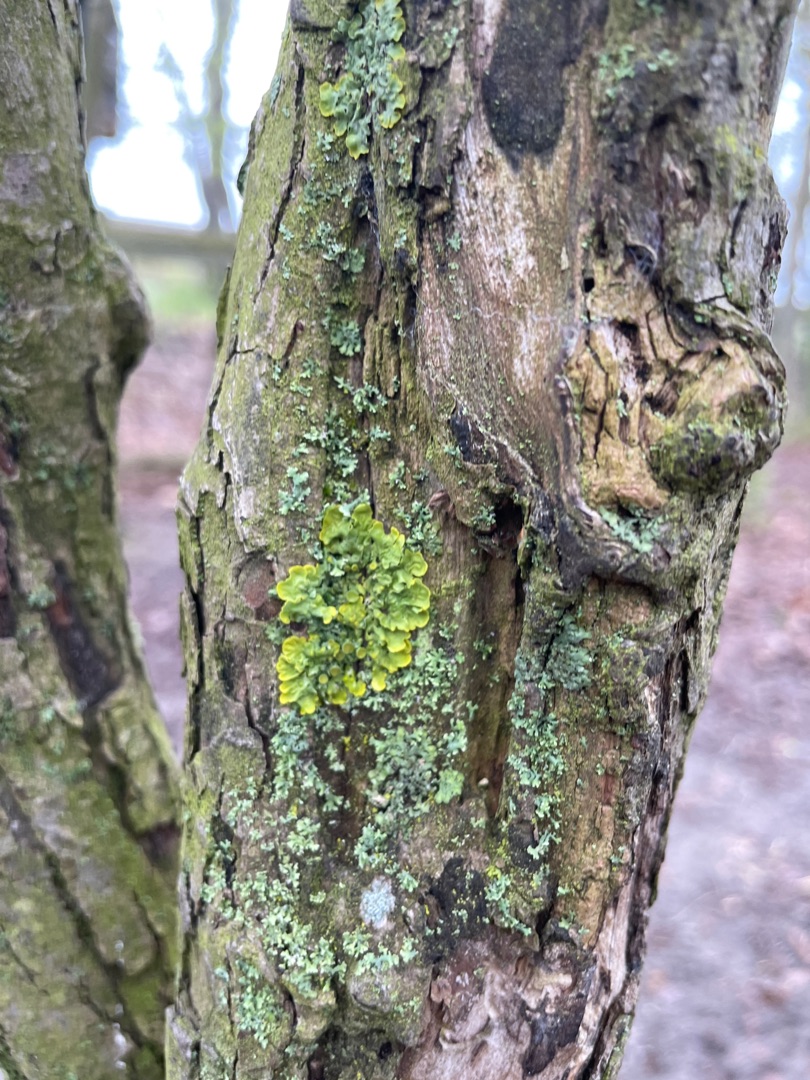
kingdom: Fungi
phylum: Ascomycota
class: Lecanoromycetes
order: Teloschistales
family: Teloschistaceae
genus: Xanthoria
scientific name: Xanthoria parietina
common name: Almindelig væggelav
